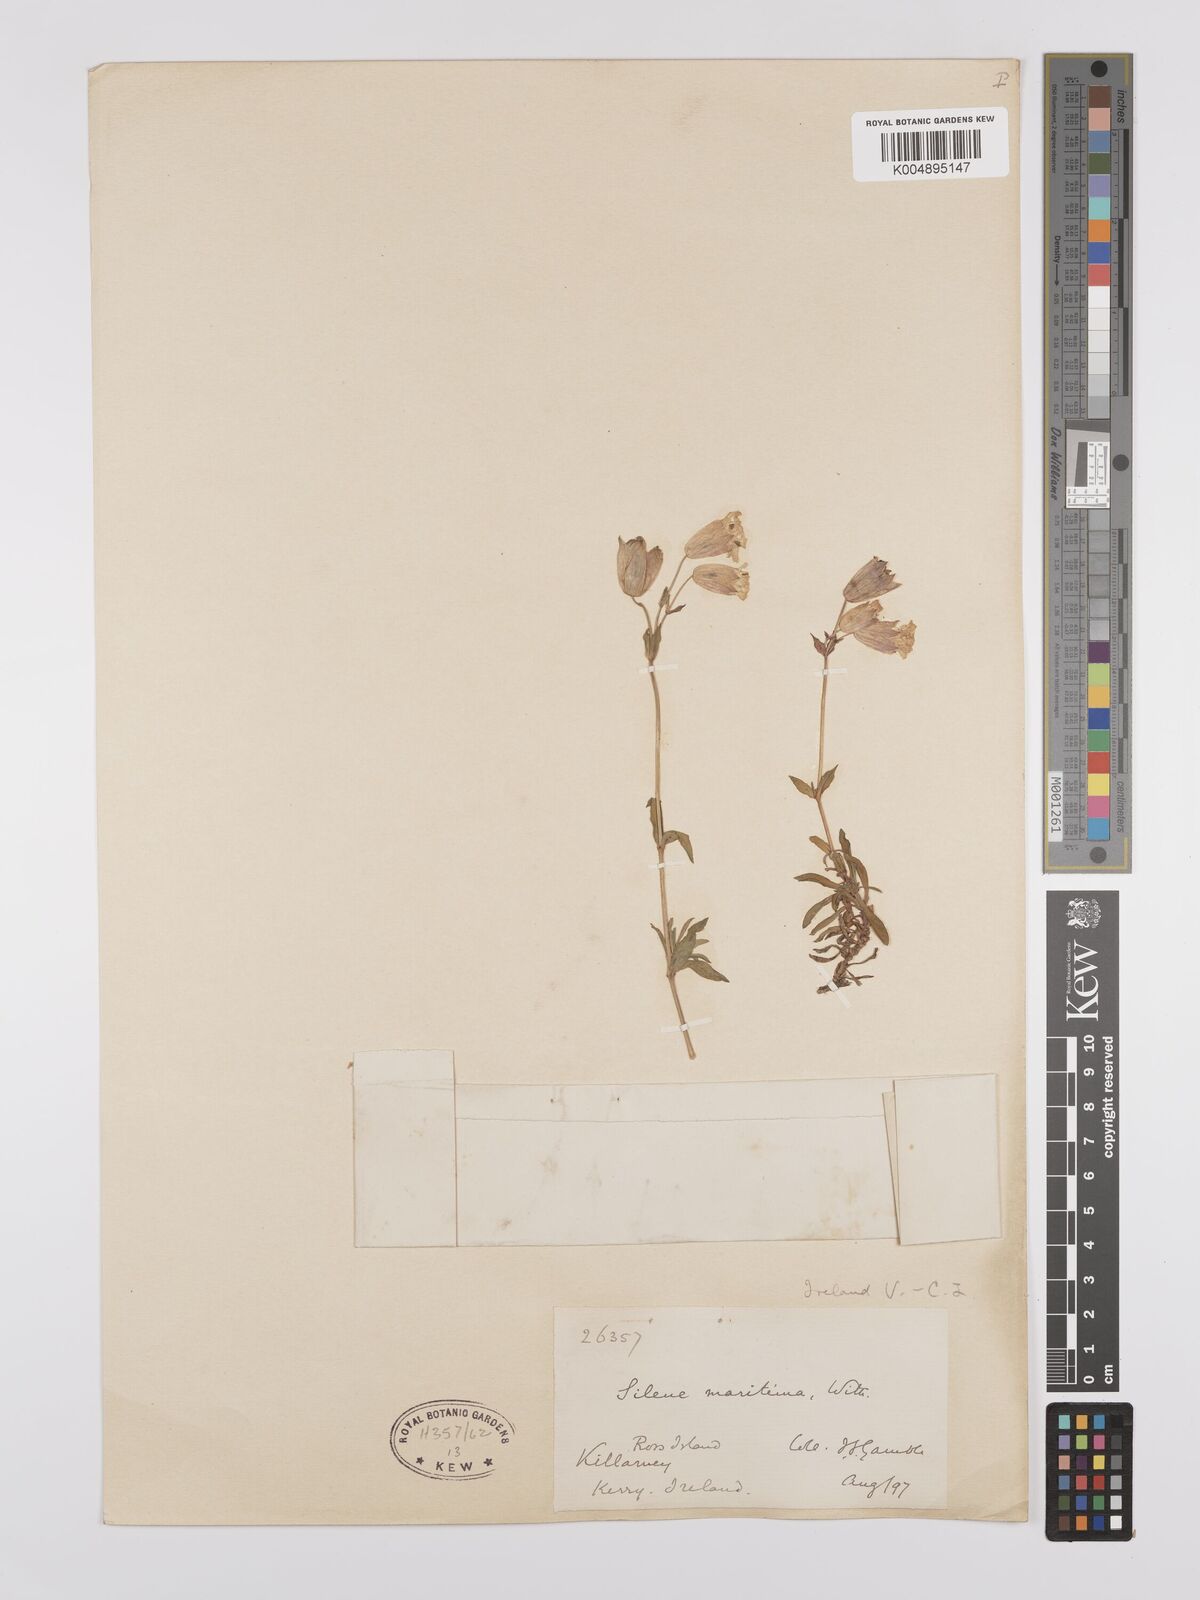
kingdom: Plantae
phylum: Tracheophyta
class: Magnoliopsida
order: Caryophyllales
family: Caryophyllaceae
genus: Silene
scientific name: Silene uniflora
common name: Sea campion
